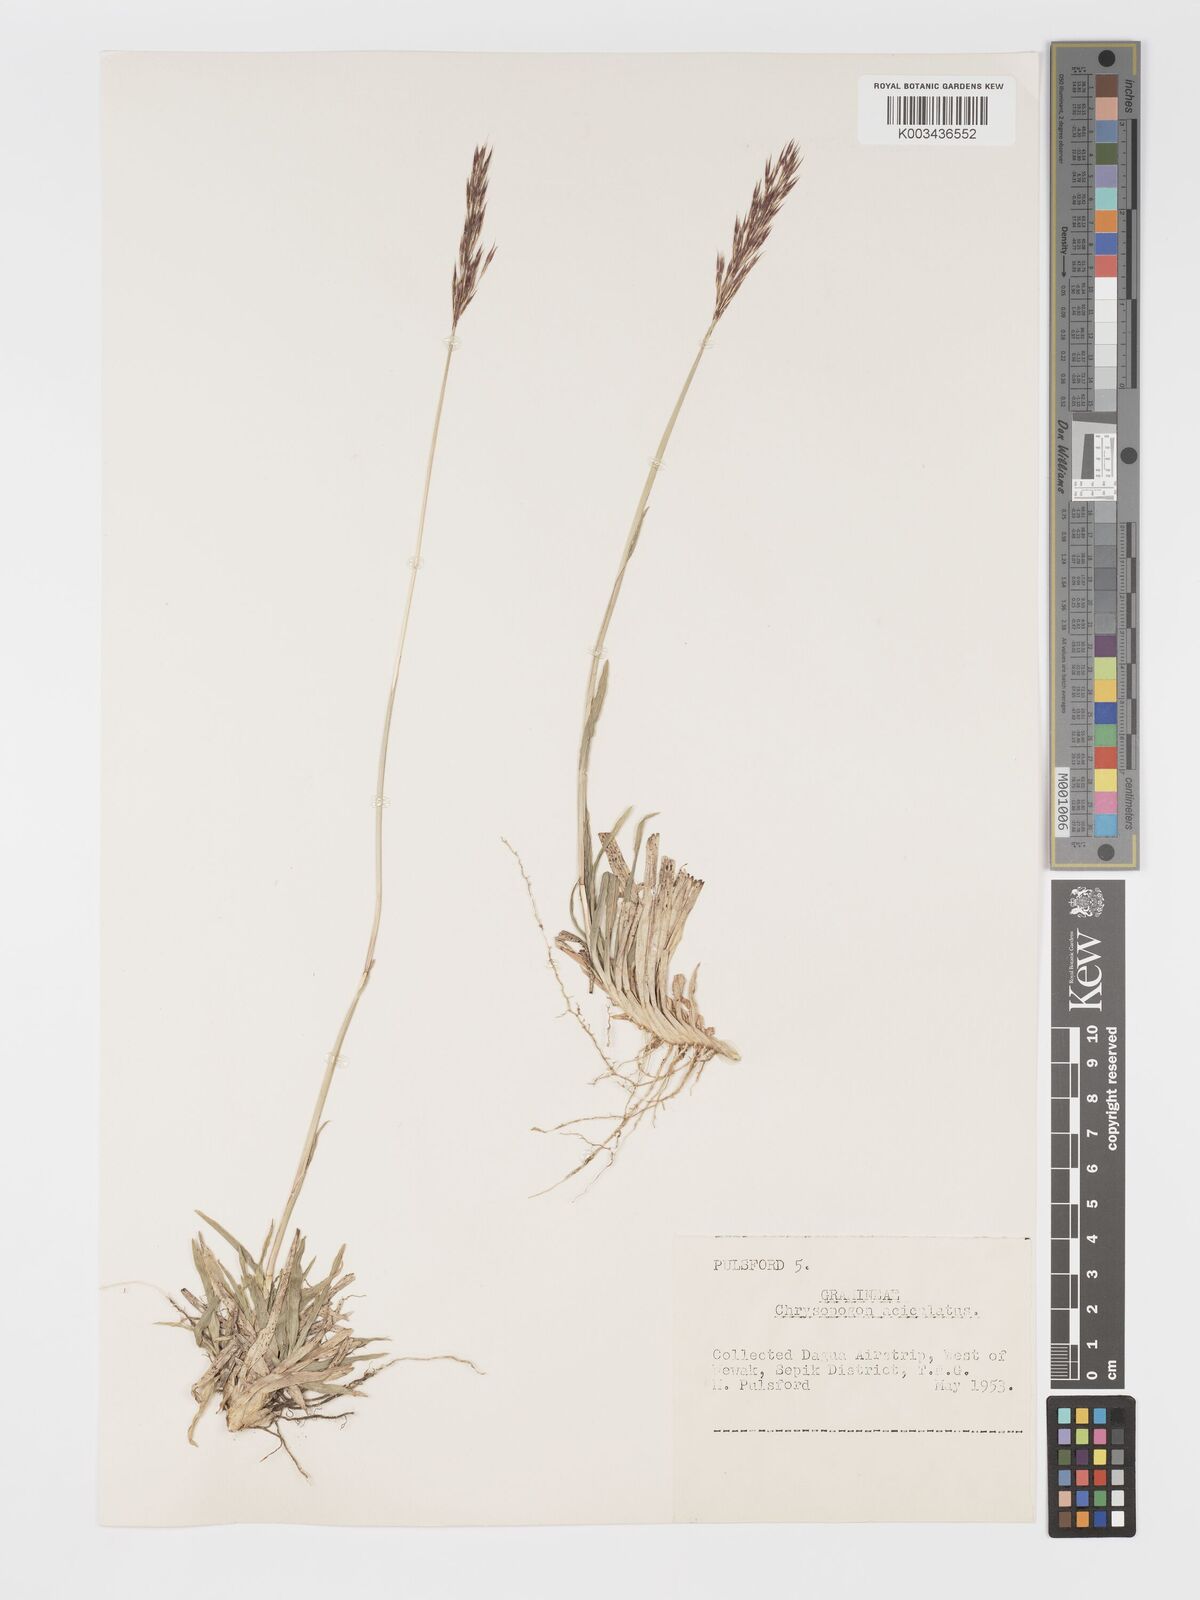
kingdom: Plantae
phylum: Tracheophyta
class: Liliopsida
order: Poales
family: Poaceae
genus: Chrysopogon
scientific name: Chrysopogon aciculatus
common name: Pilipiliula
